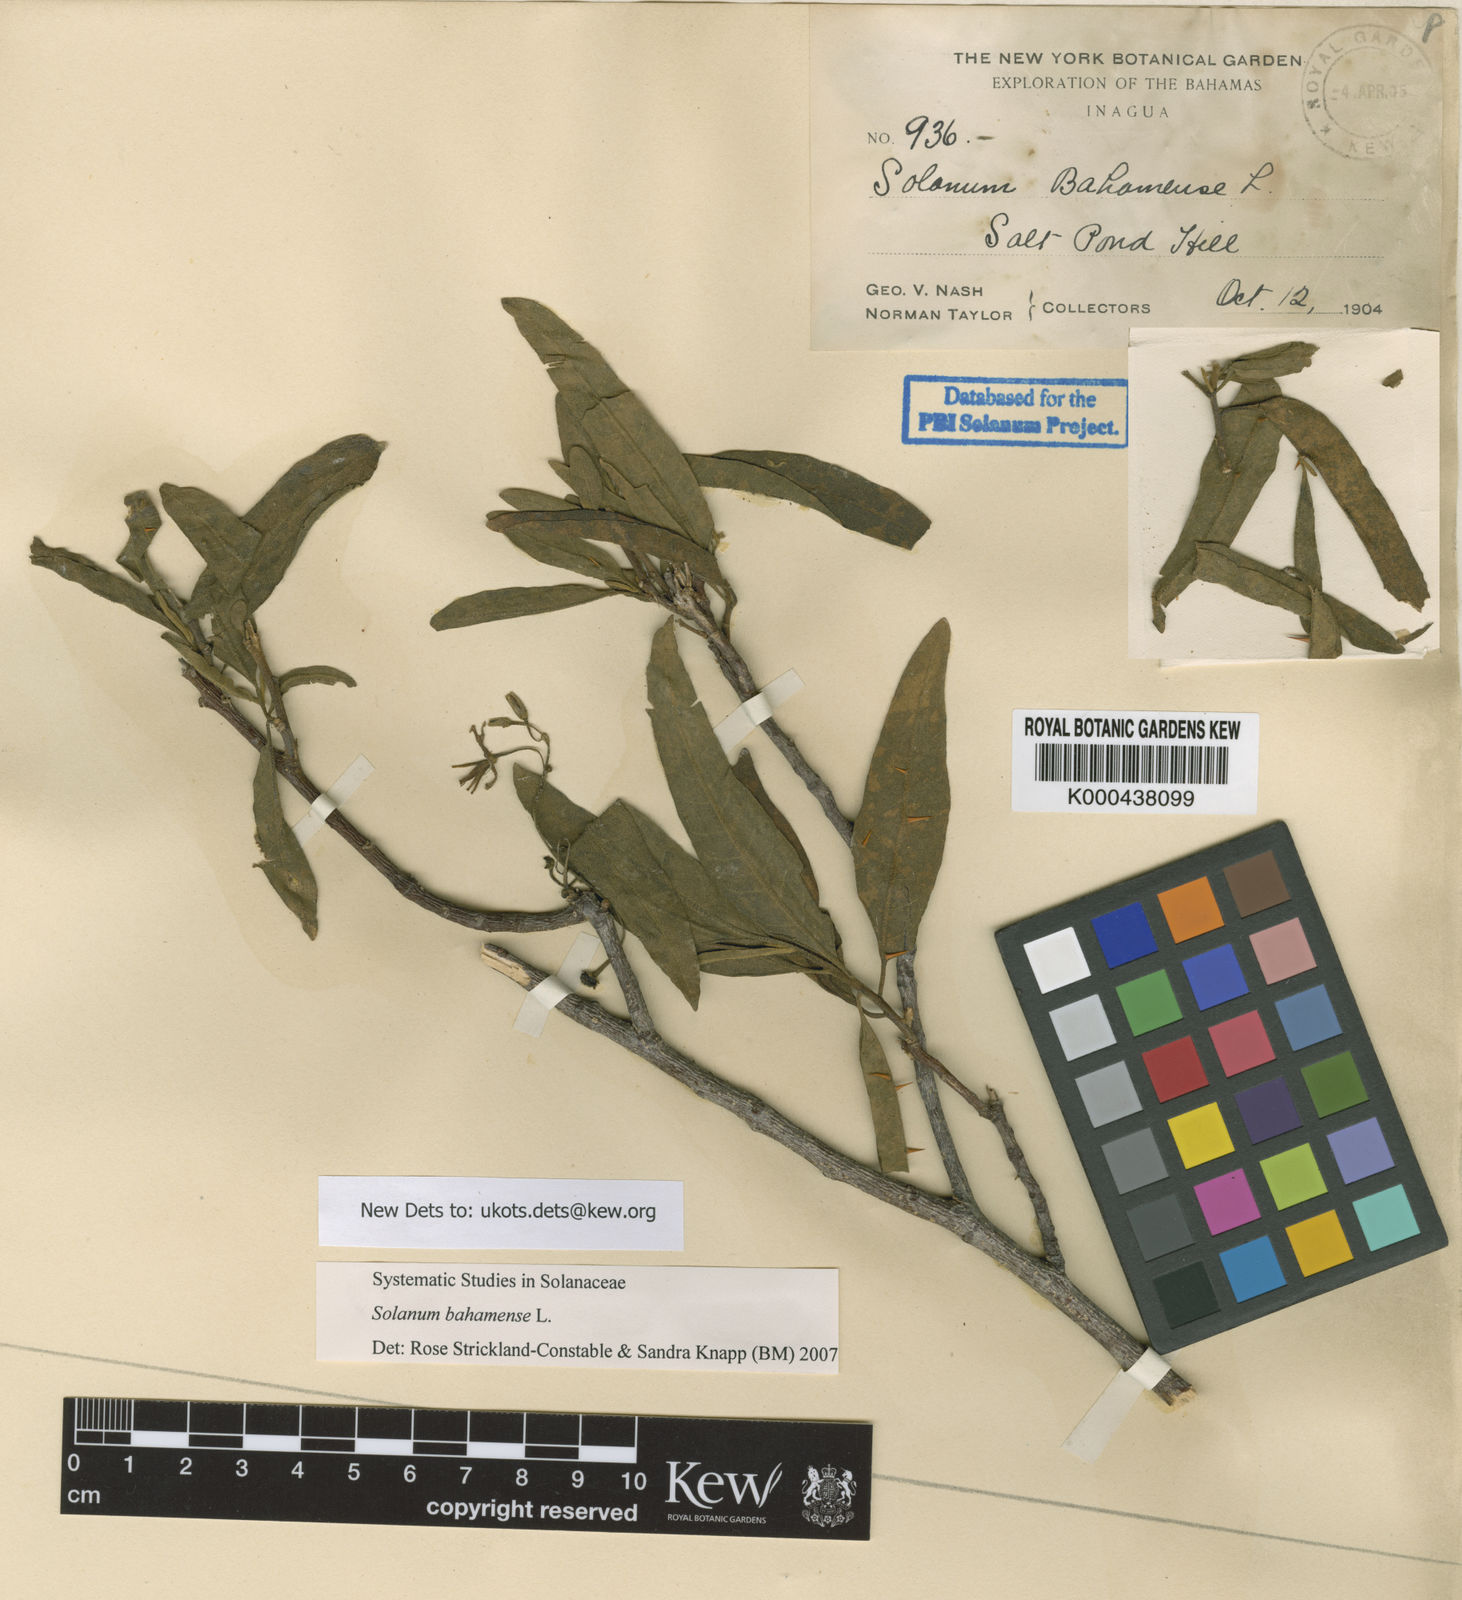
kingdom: Plantae
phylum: Tracheophyta
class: Magnoliopsida
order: Solanales
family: Solanaceae
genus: Solanum
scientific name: Solanum bahamense
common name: Canker-berry
